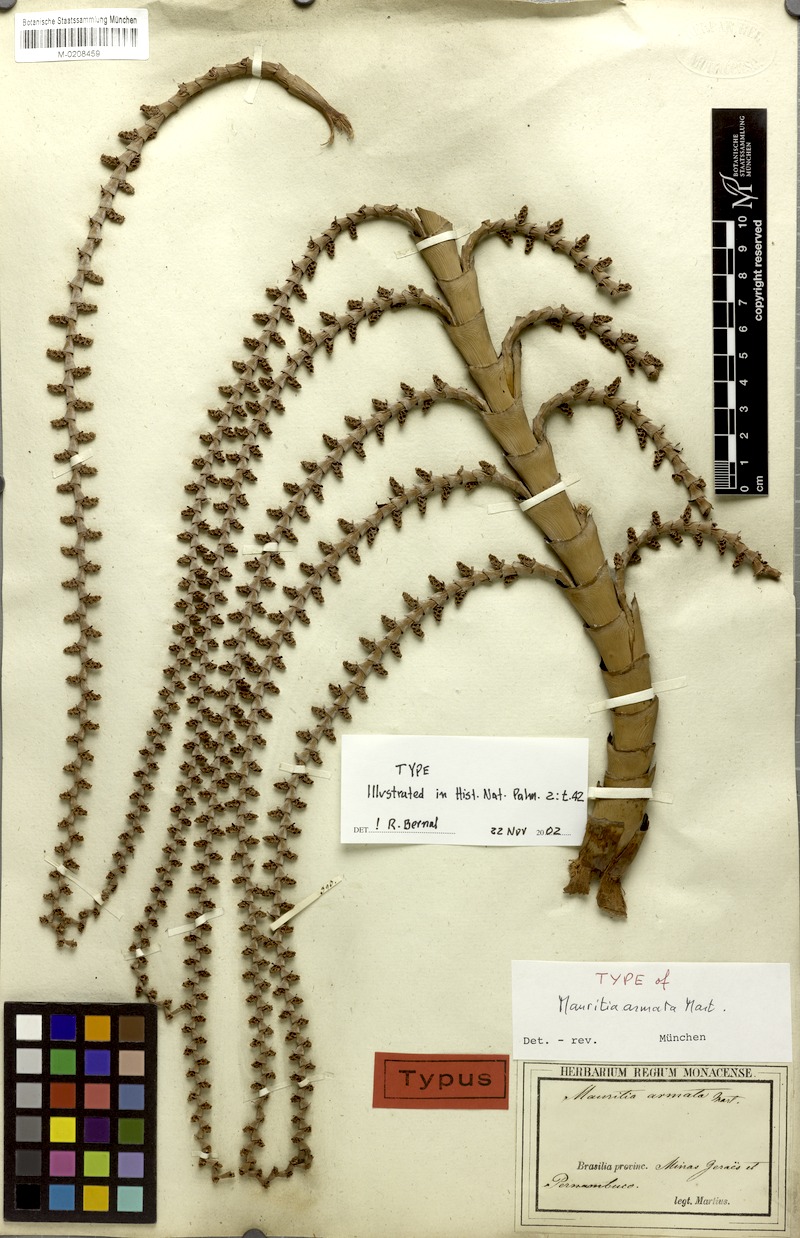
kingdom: Plantae
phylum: Tracheophyta
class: Liliopsida
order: Arecales
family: Arecaceae
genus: Mauritiella
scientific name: Mauritiella armata
